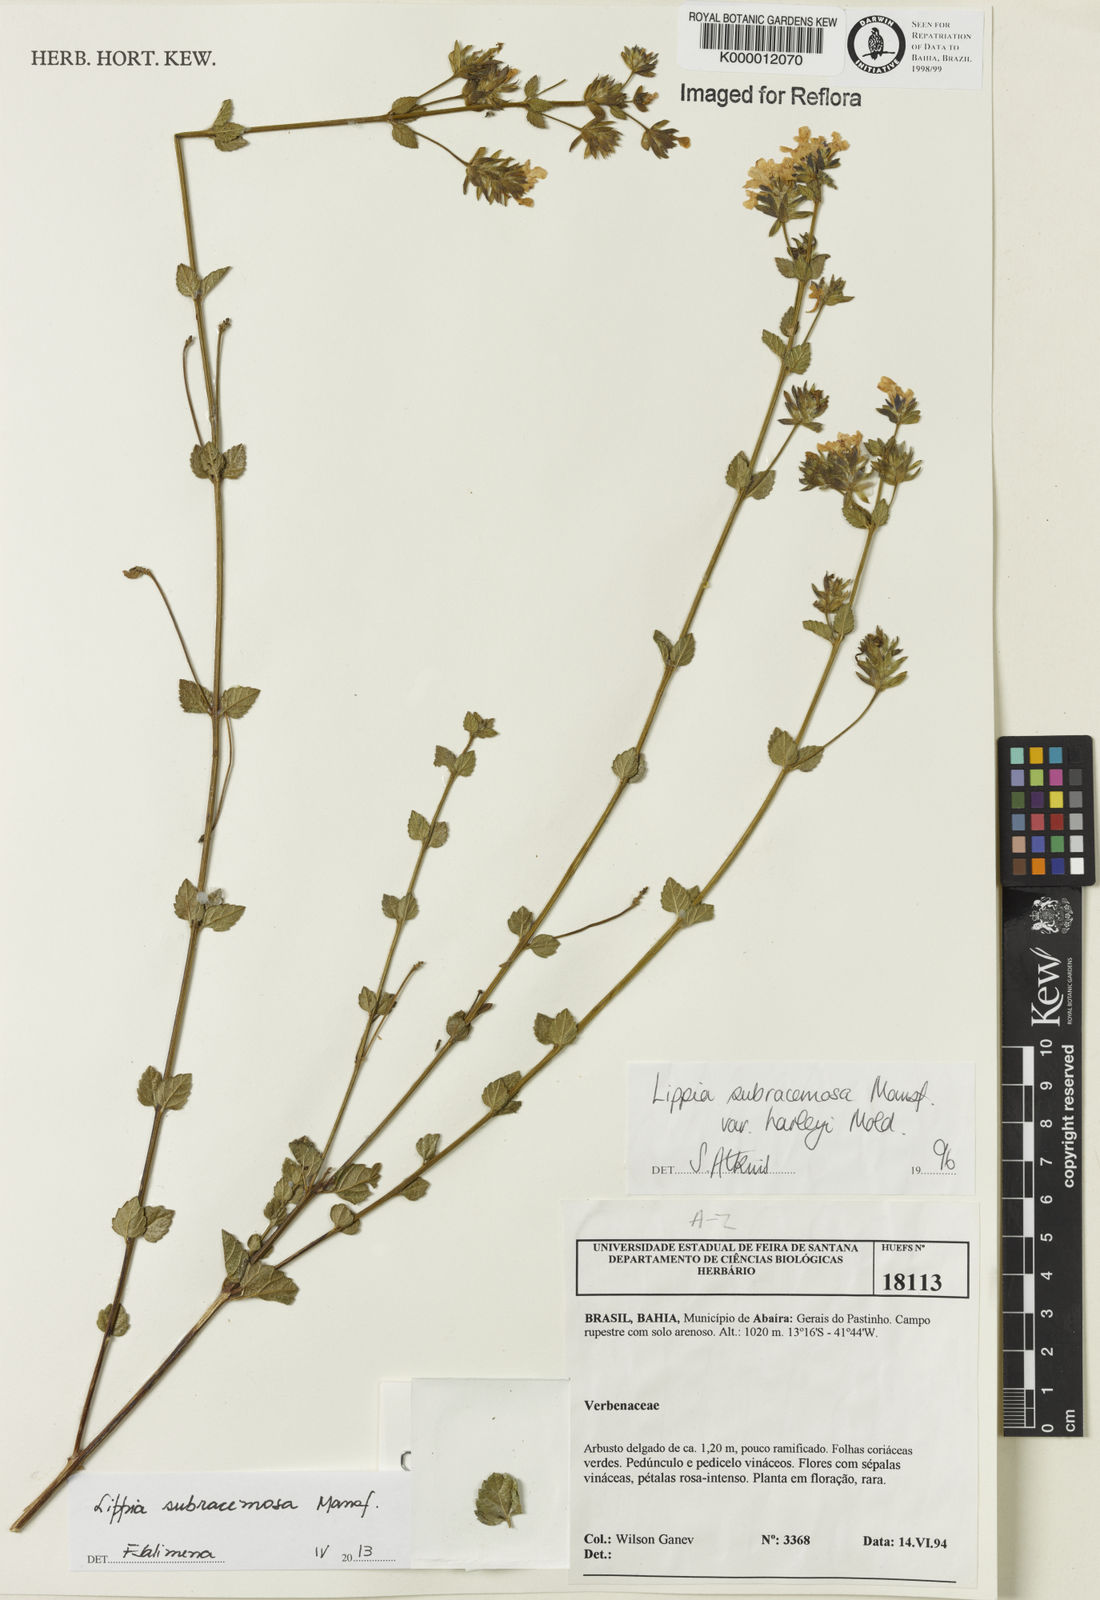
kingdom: Plantae
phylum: Tracheophyta
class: Magnoliopsida
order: Lamiales
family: Verbenaceae
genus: Lippia
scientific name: Lippia deltata
